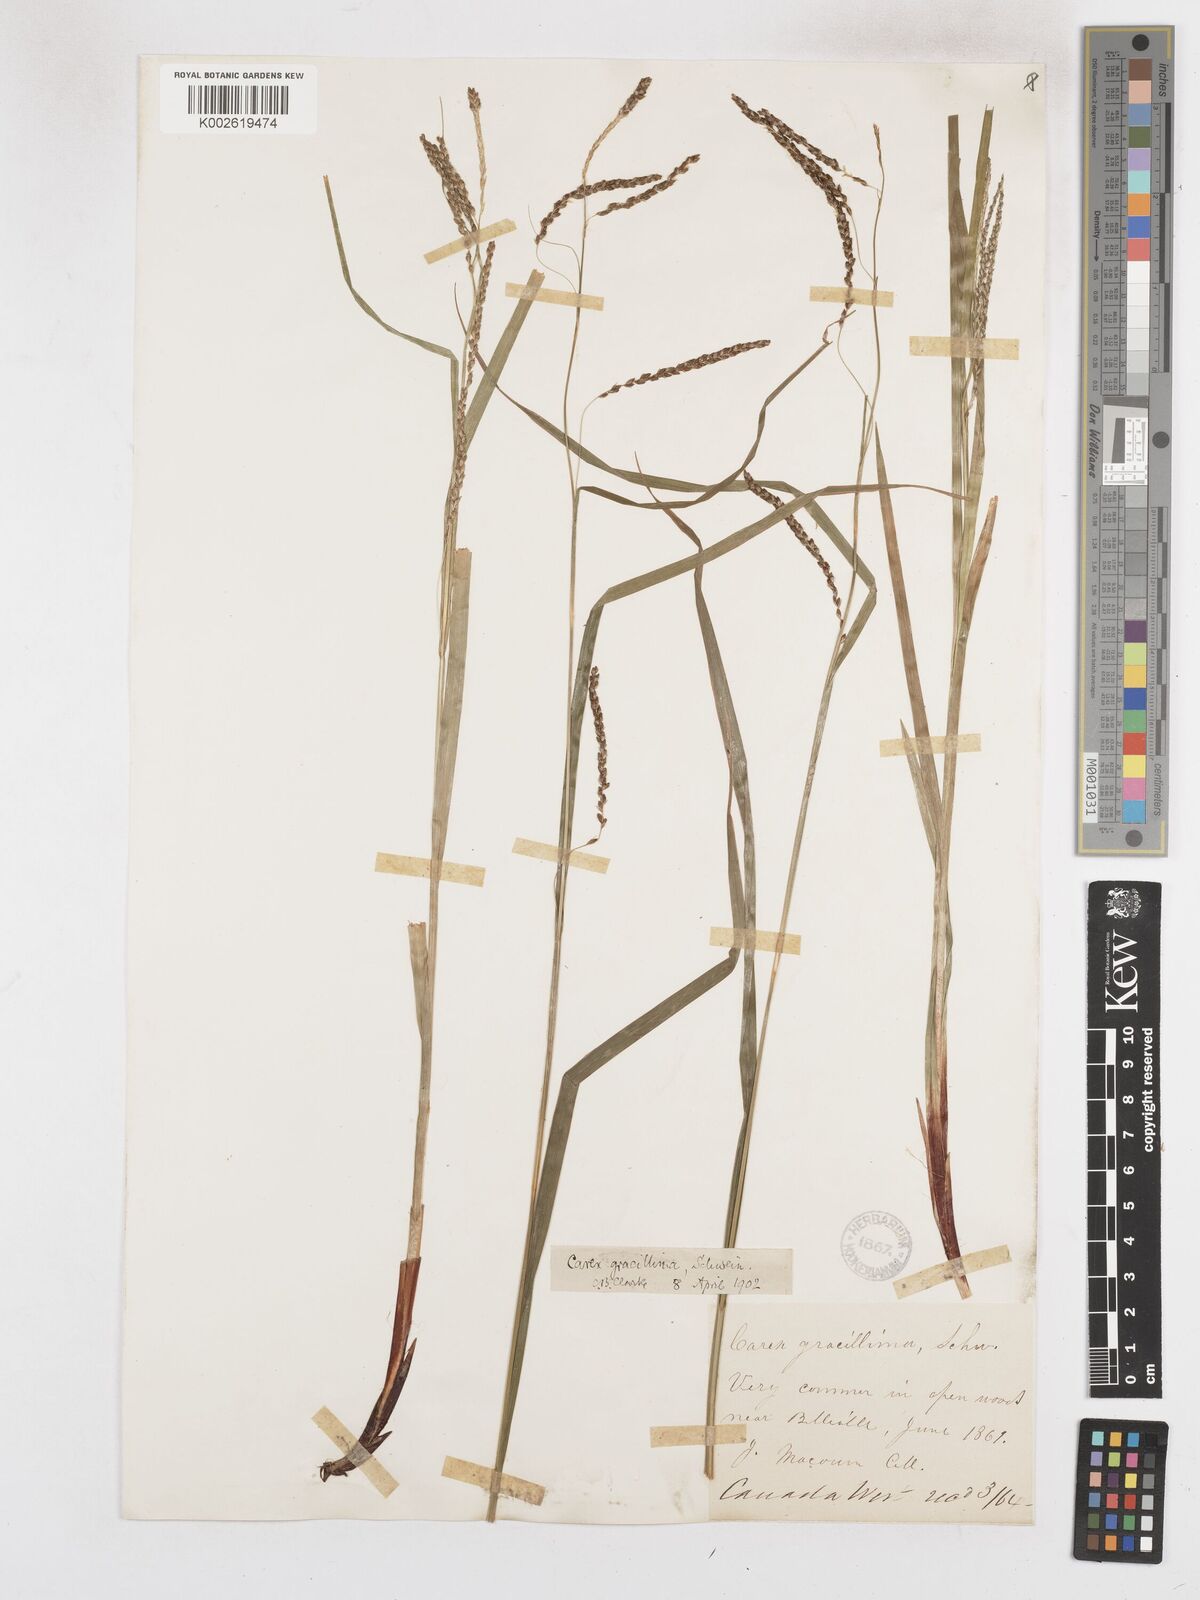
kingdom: Plantae
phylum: Tracheophyta
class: Liliopsida
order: Poales
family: Cyperaceae
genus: Carex
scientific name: Carex gracillima
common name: Graceful sedge
